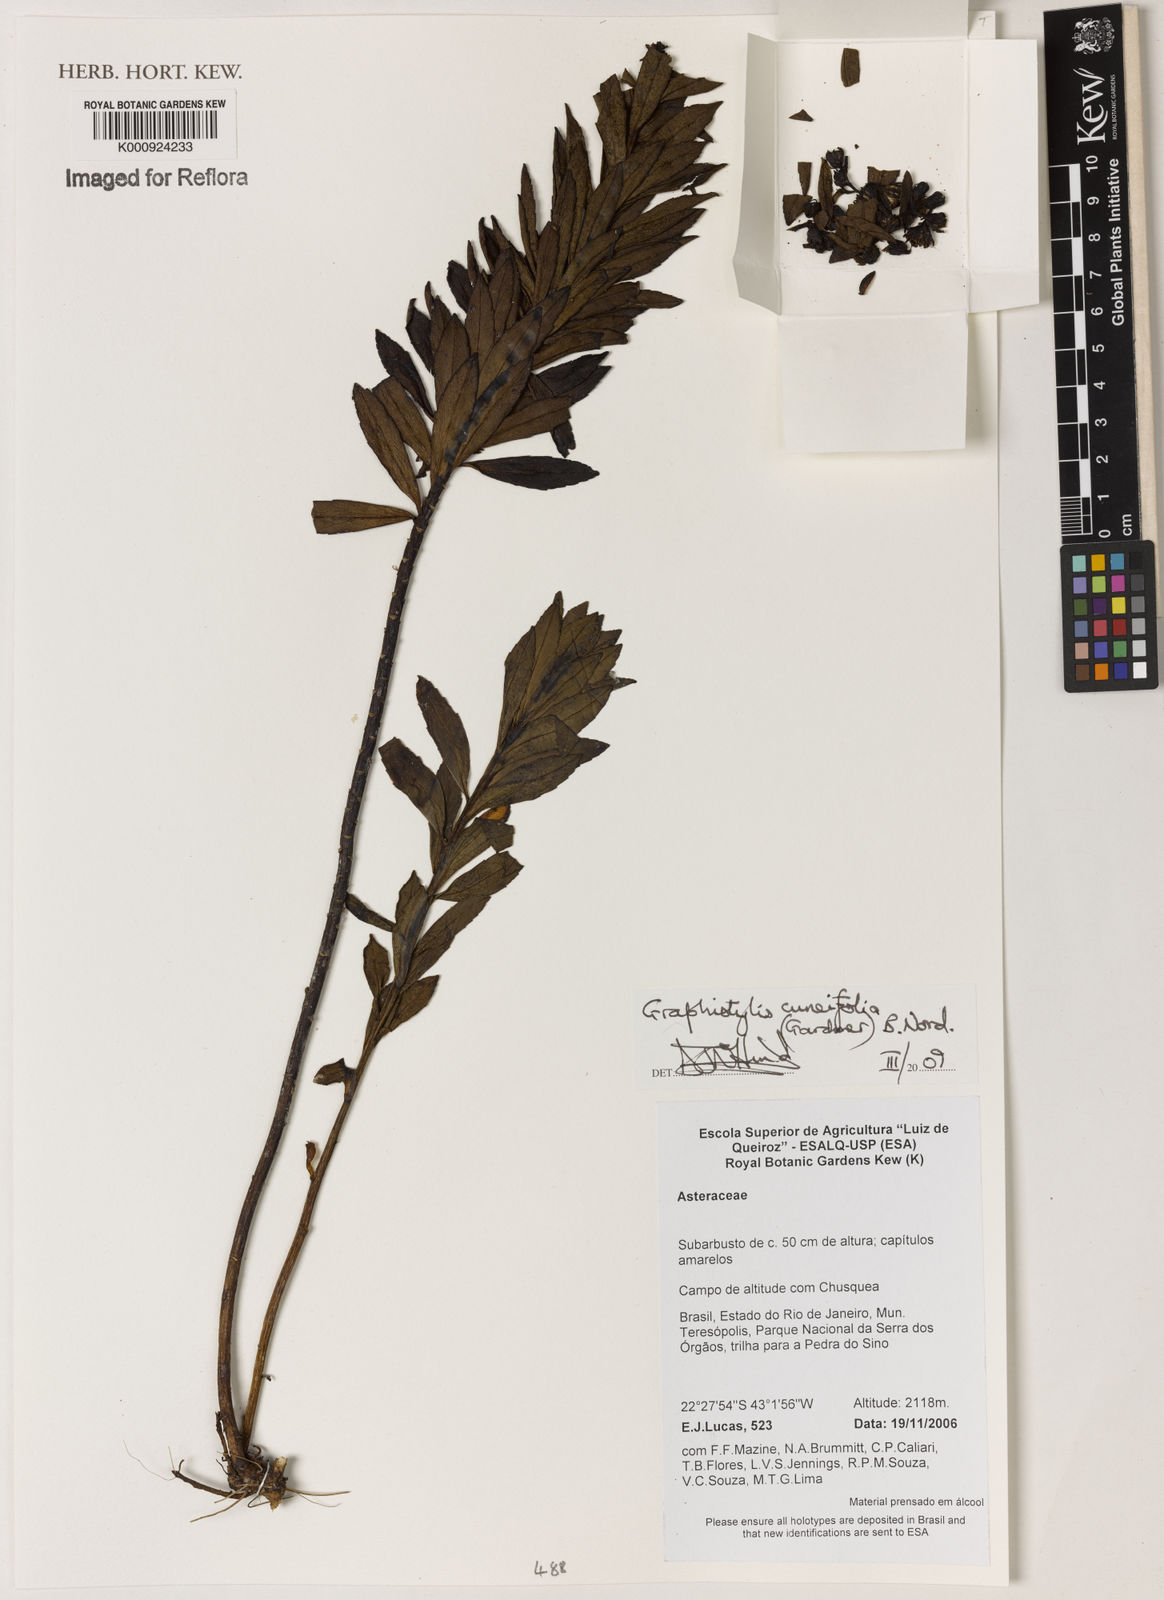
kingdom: Plantae
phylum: Tracheophyta
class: Magnoliopsida
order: Asterales
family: Asteraceae
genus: Graphistylis
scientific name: Graphistylis cuneifolia
